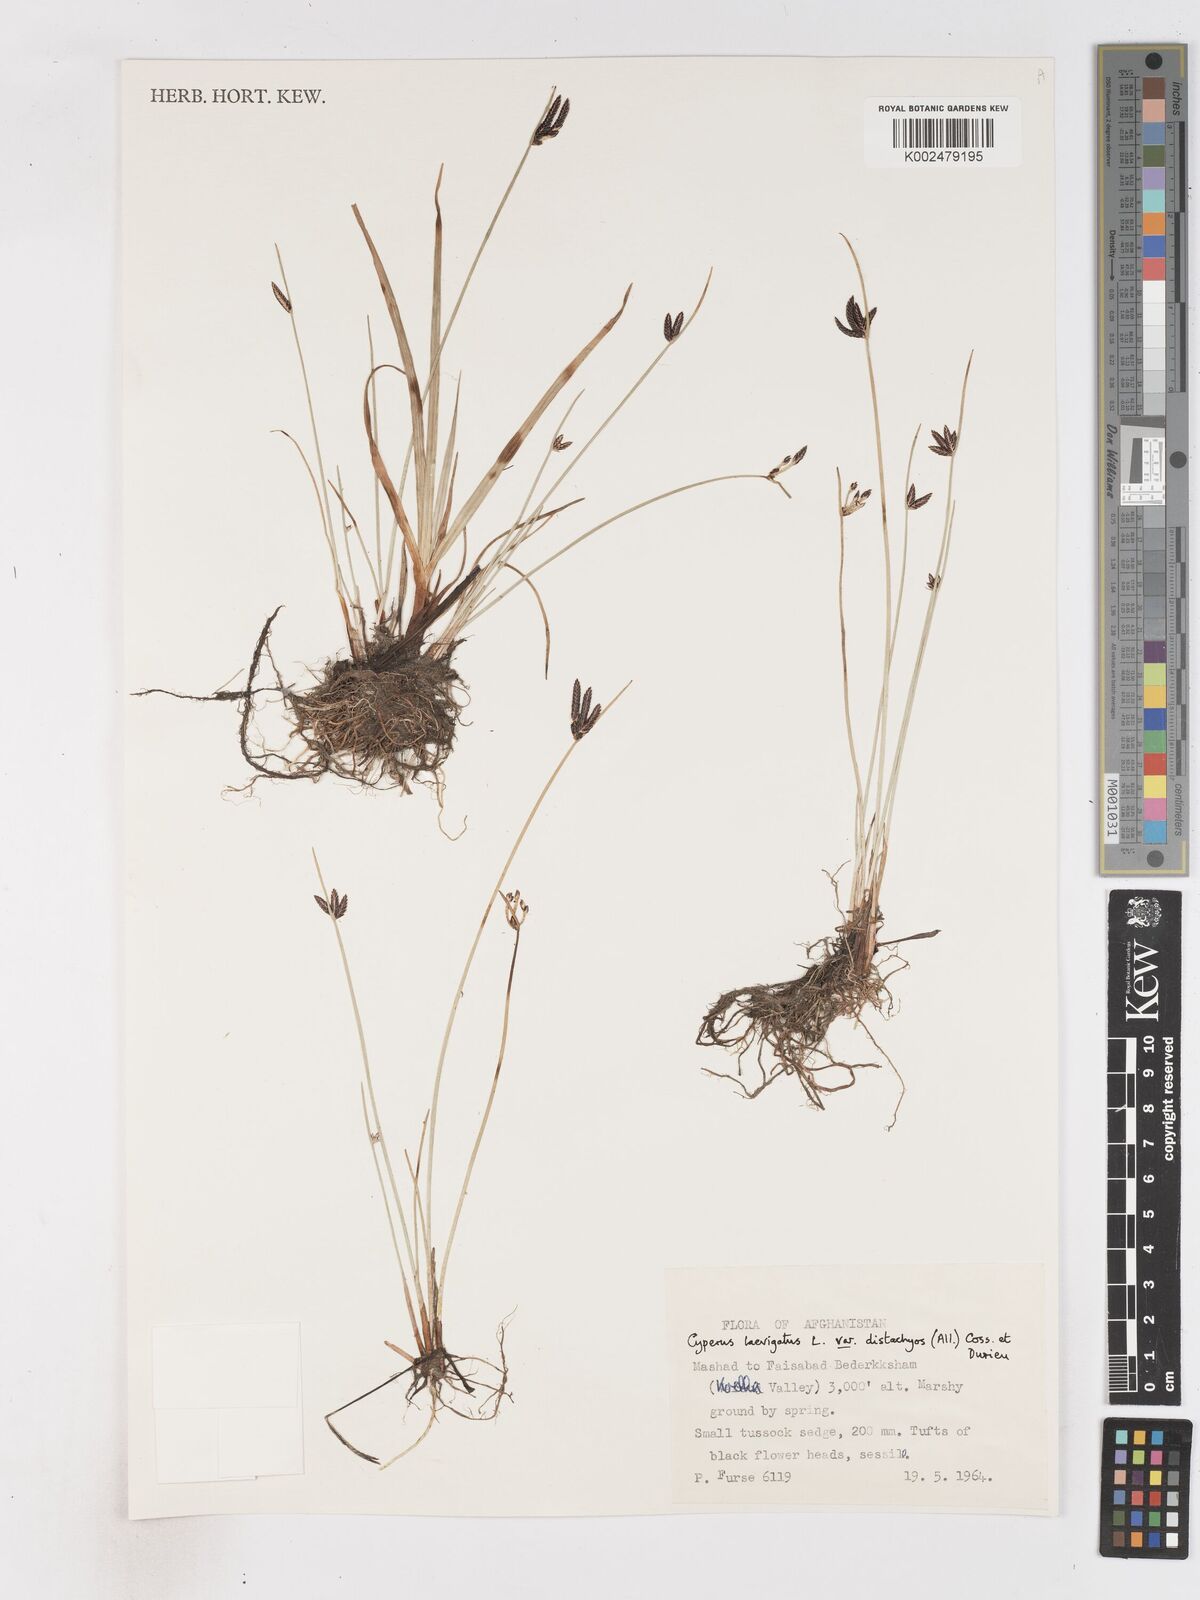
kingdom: Plantae
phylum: Tracheophyta
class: Liliopsida
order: Poales
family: Cyperaceae
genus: Cyperus
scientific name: Cyperus laevigatus
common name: Smooth flat sedge
